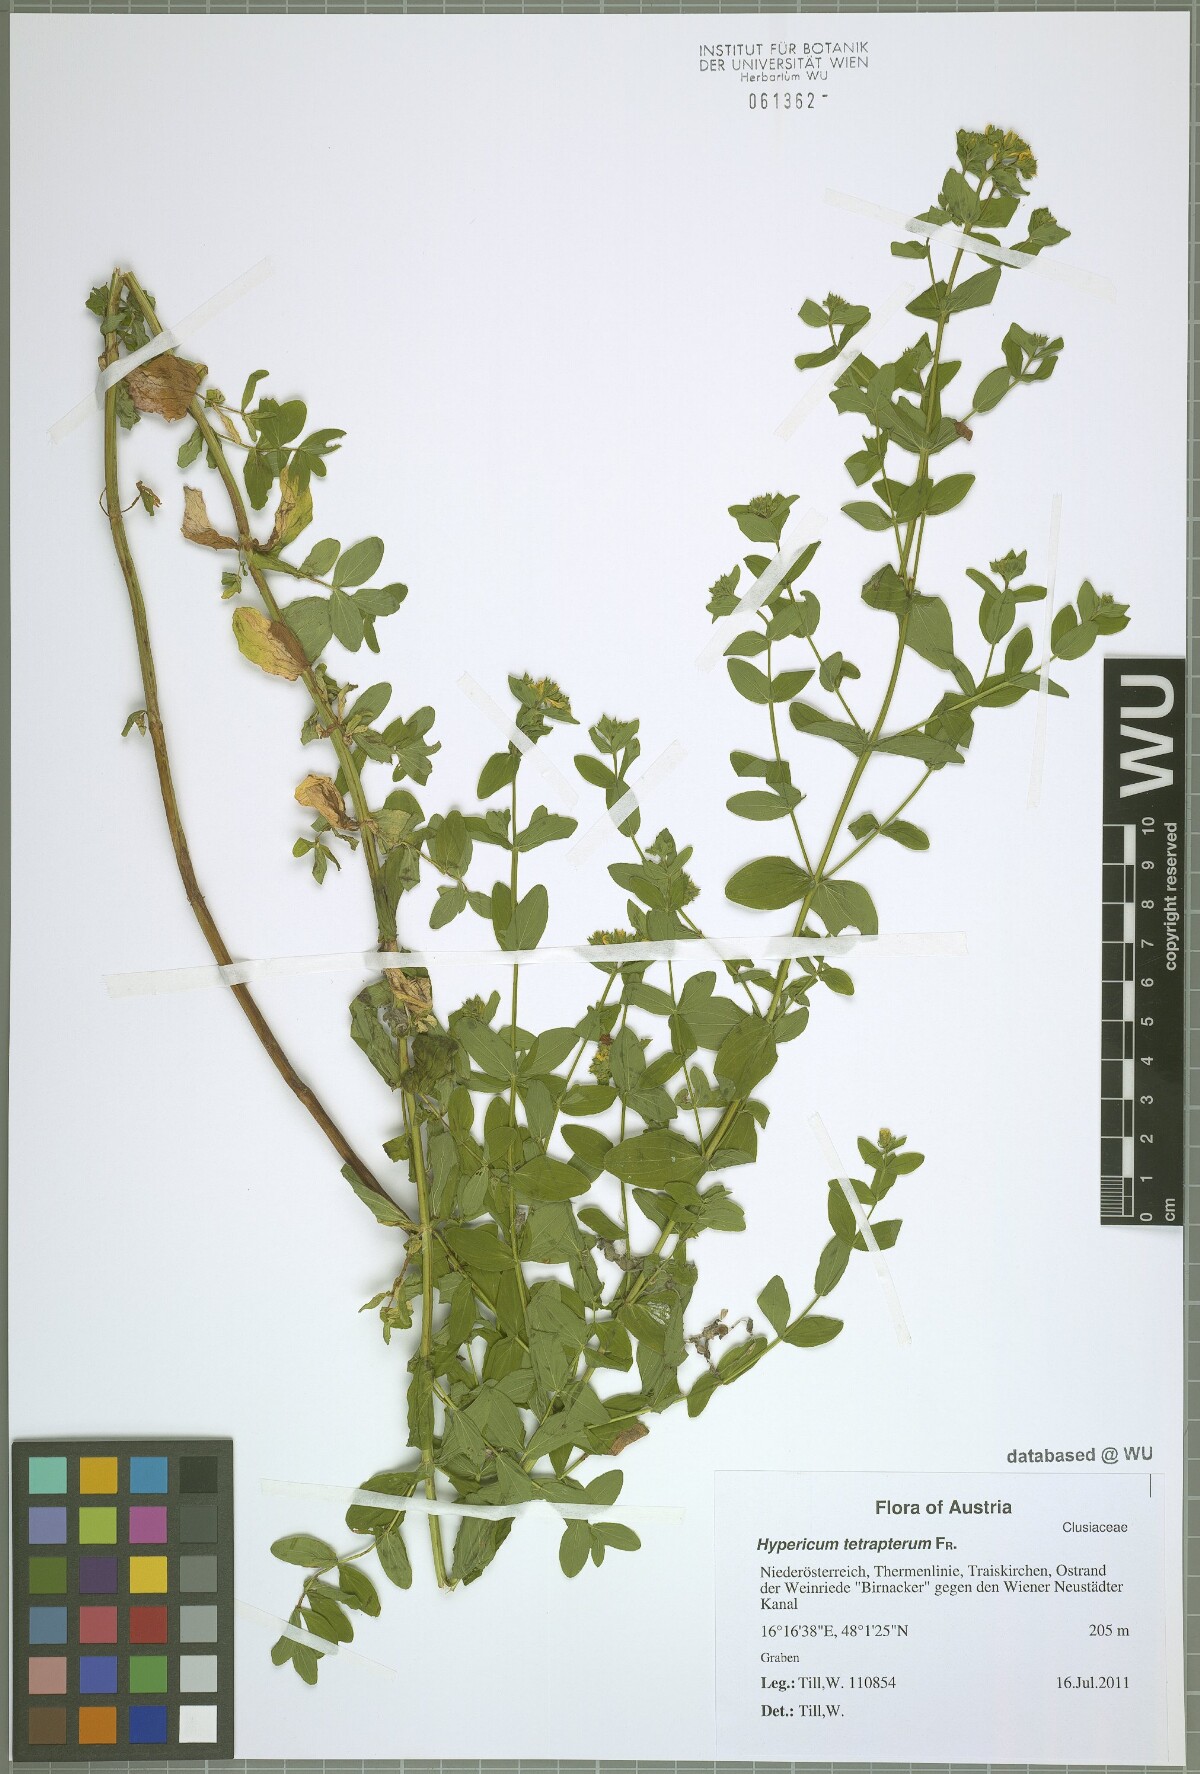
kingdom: Plantae
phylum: Tracheophyta
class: Magnoliopsida
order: Malpighiales
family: Hypericaceae
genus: Hypericum
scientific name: Hypericum tetrapterum
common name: Square-stalked st. john's-wort
